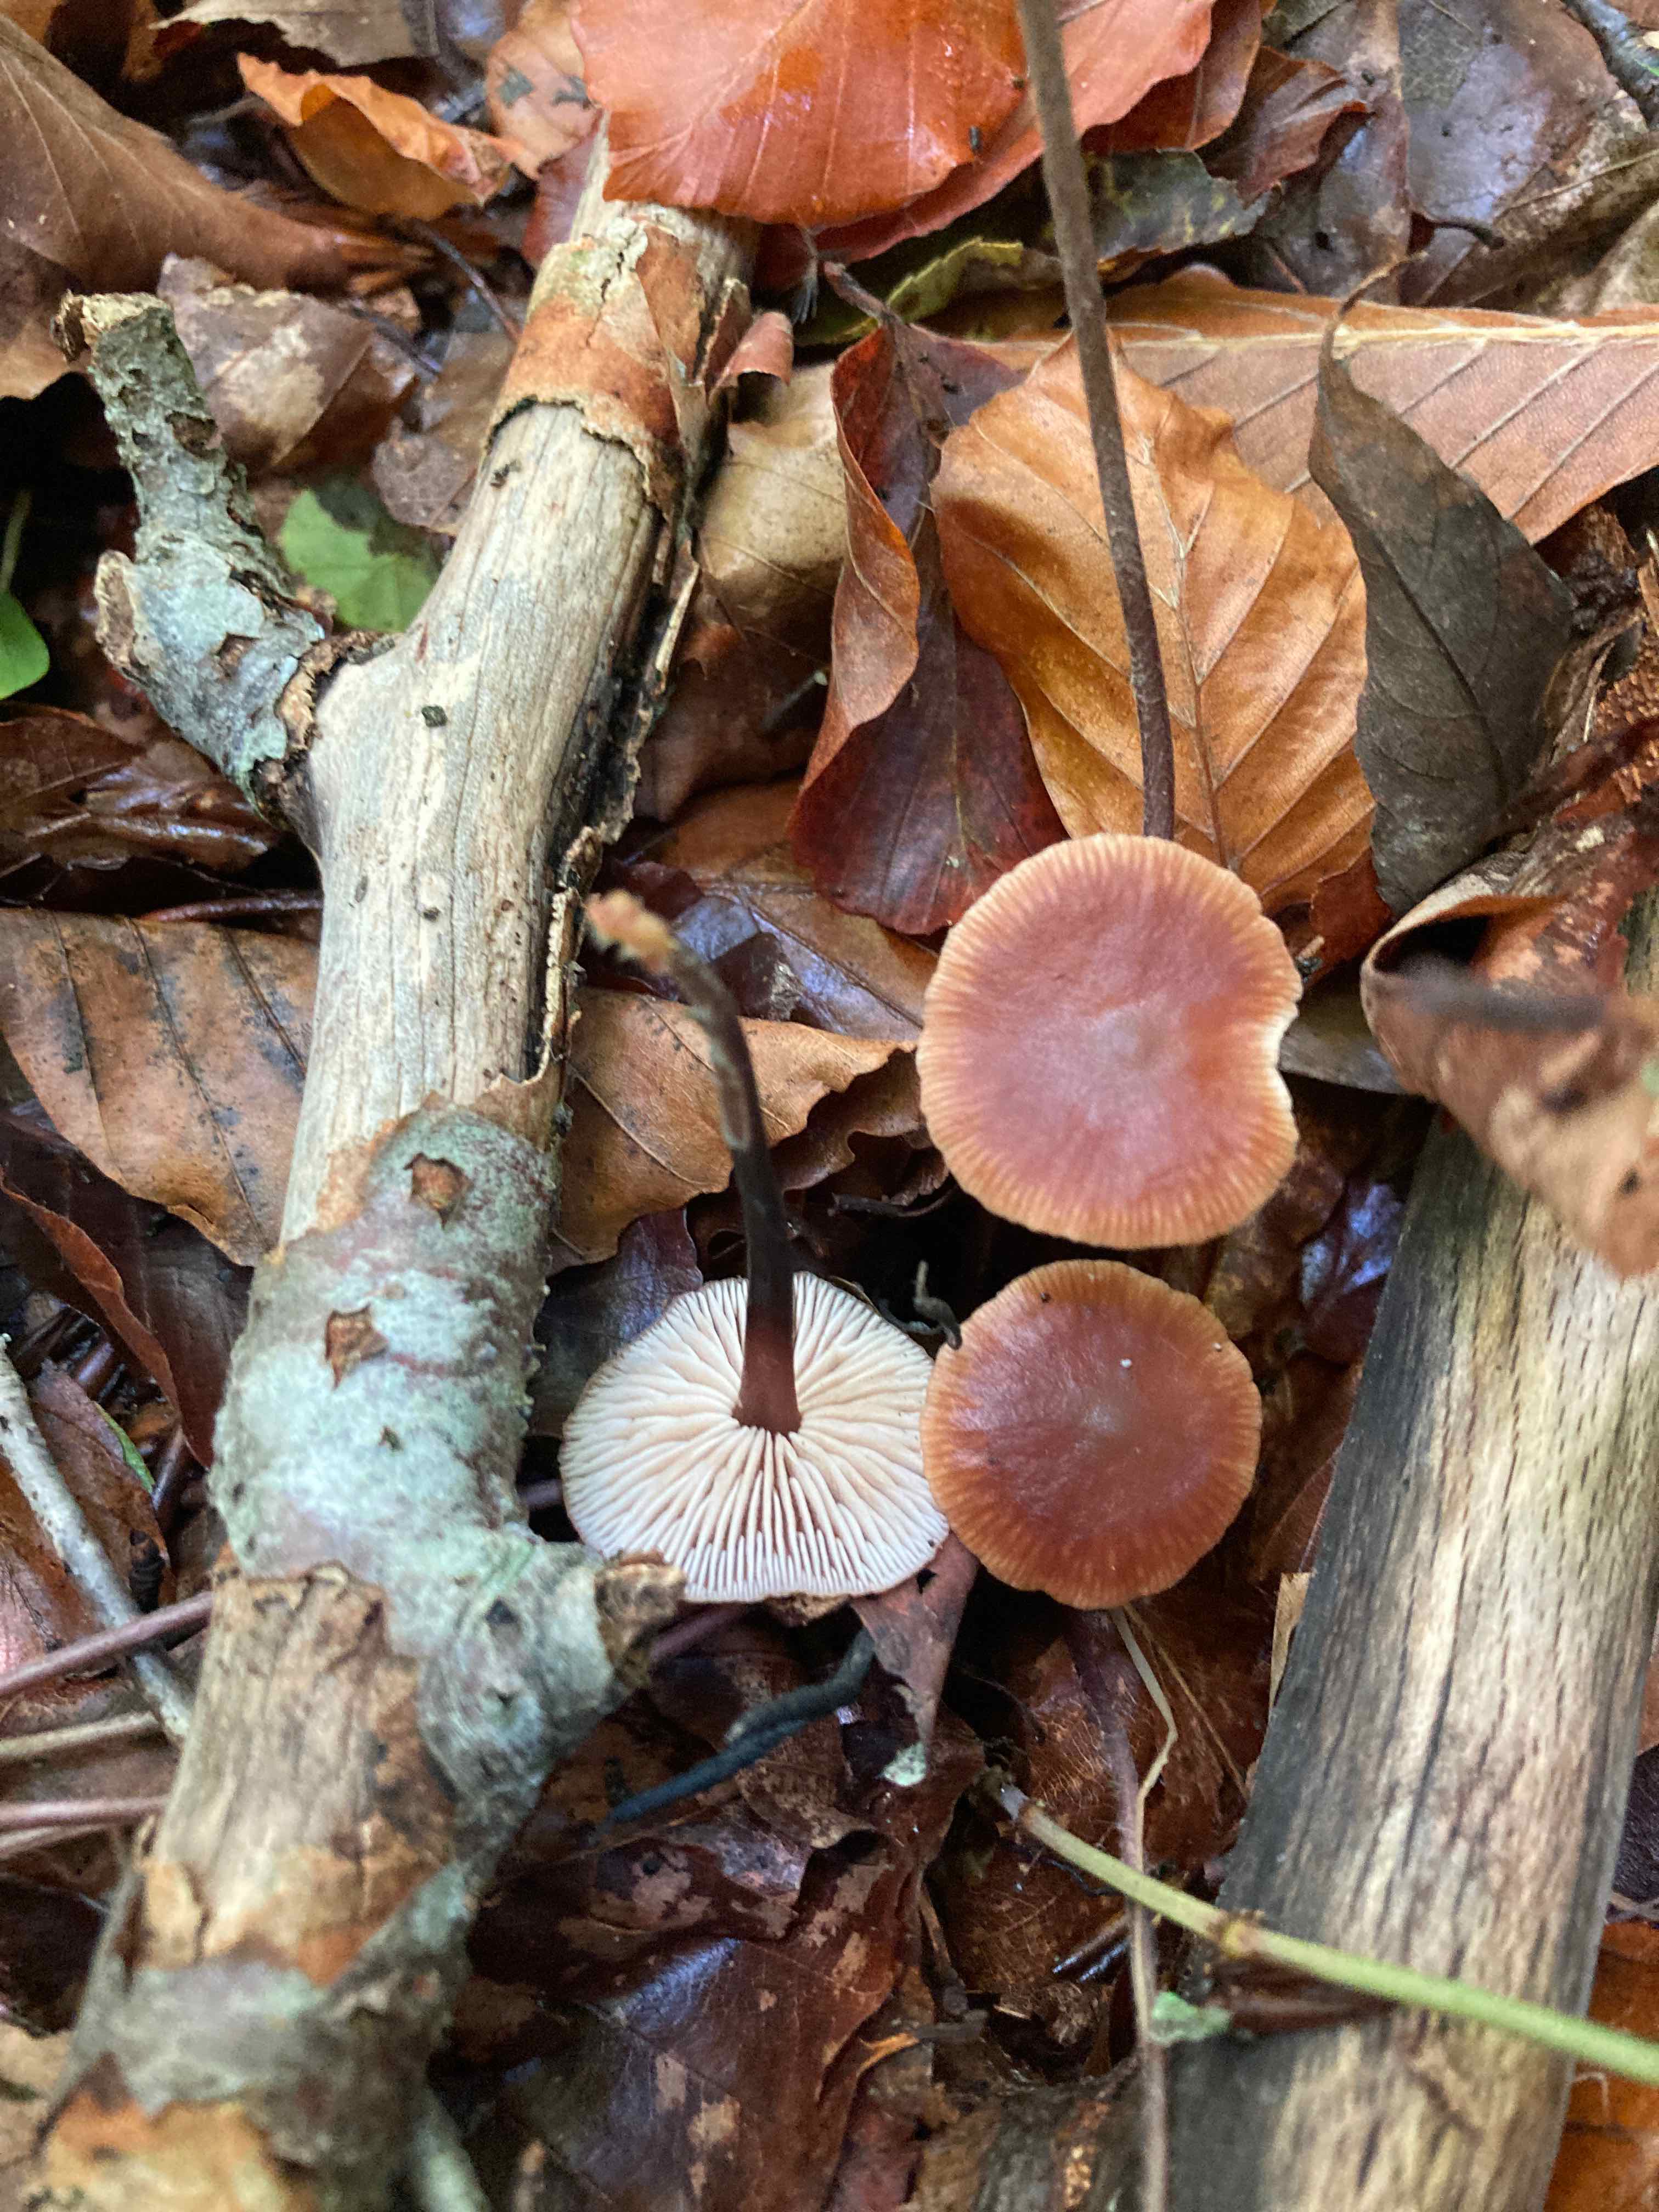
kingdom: Fungi
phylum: Basidiomycota
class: Agaricomycetes
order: Agaricales
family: Omphalotaceae
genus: Gymnopus
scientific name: Gymnopus brassicolens
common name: kål-fladhat
